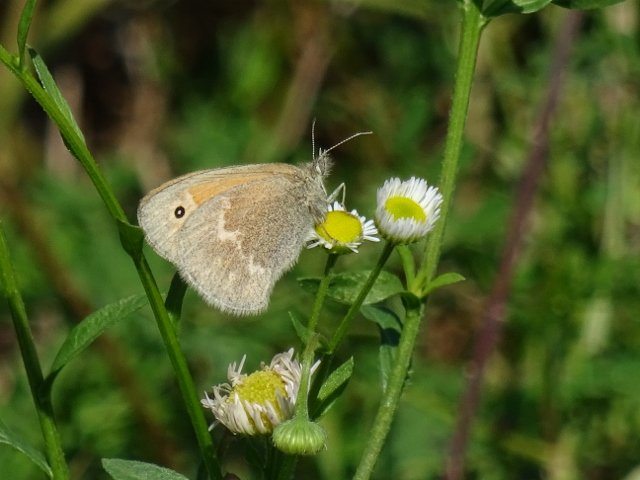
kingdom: Animalia
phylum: Arthropoda
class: Insecta
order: Lepidoptera
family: Nymphalidae
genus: Coenonympha
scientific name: Coenonympha tullia
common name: Large Heath
